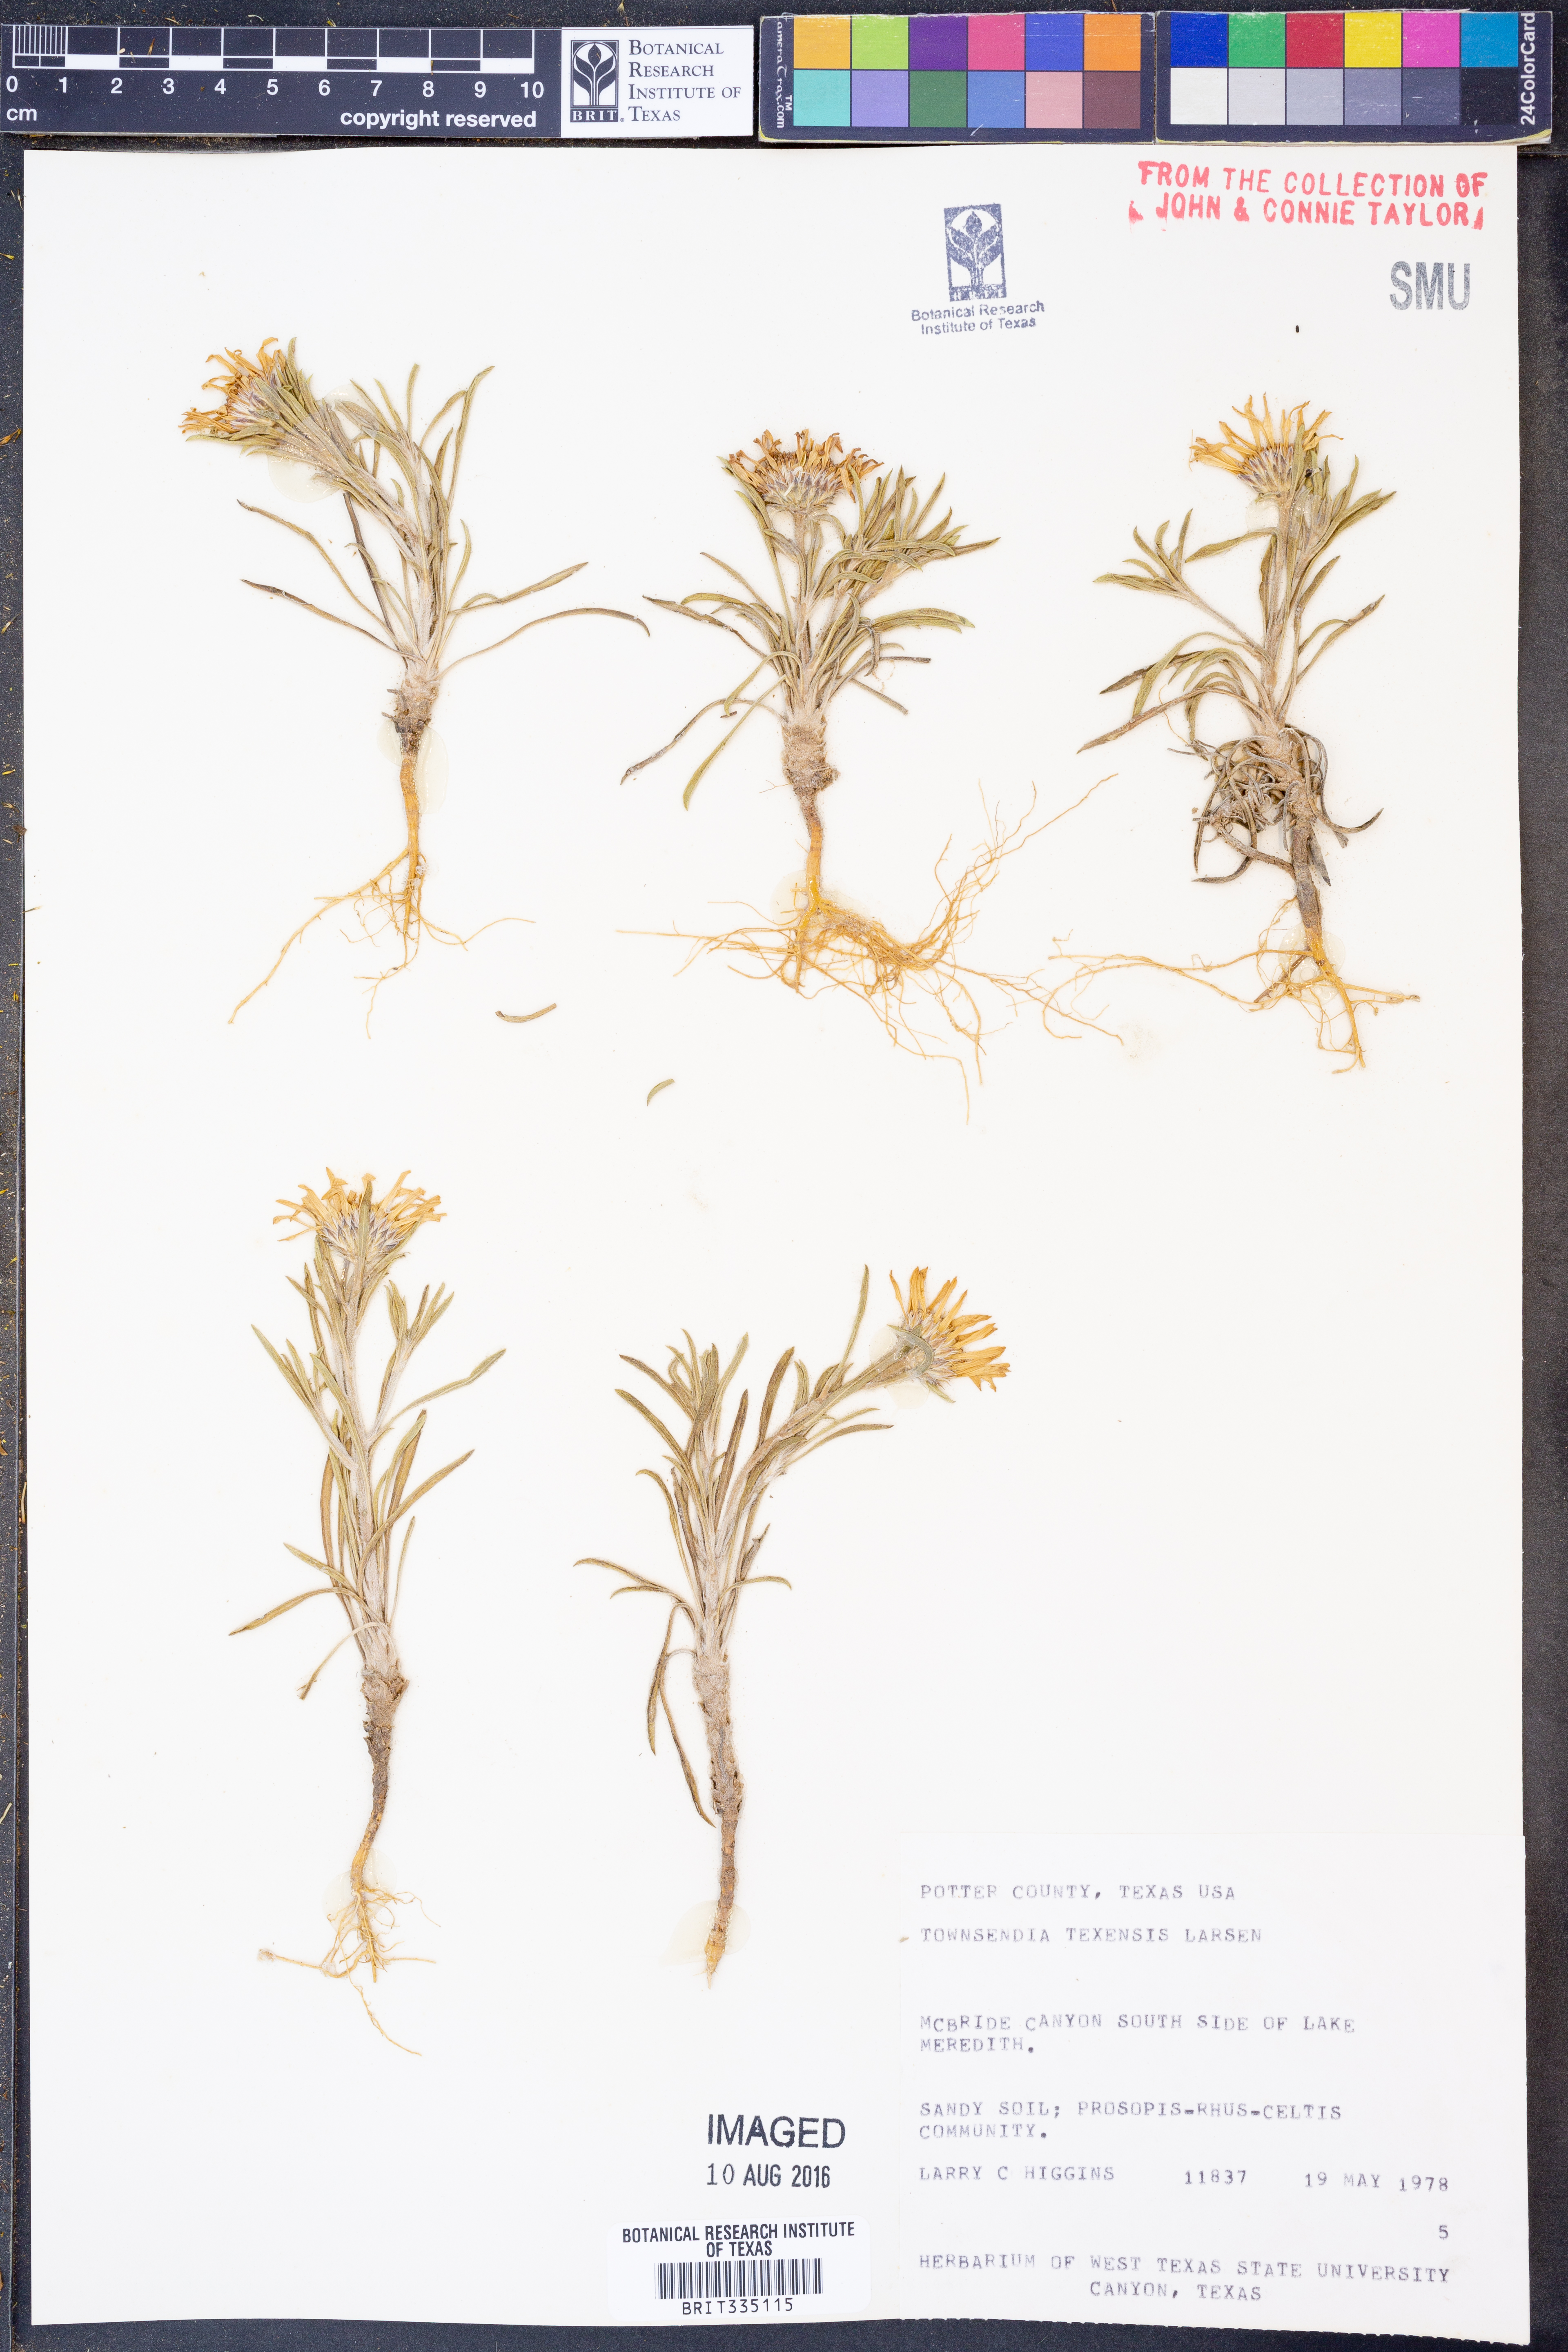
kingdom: Plantae
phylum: Tracheophyta
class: Magnoliopsida
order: Asterales
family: Asteraceae
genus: Townsendia
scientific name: Townsendia texensis
